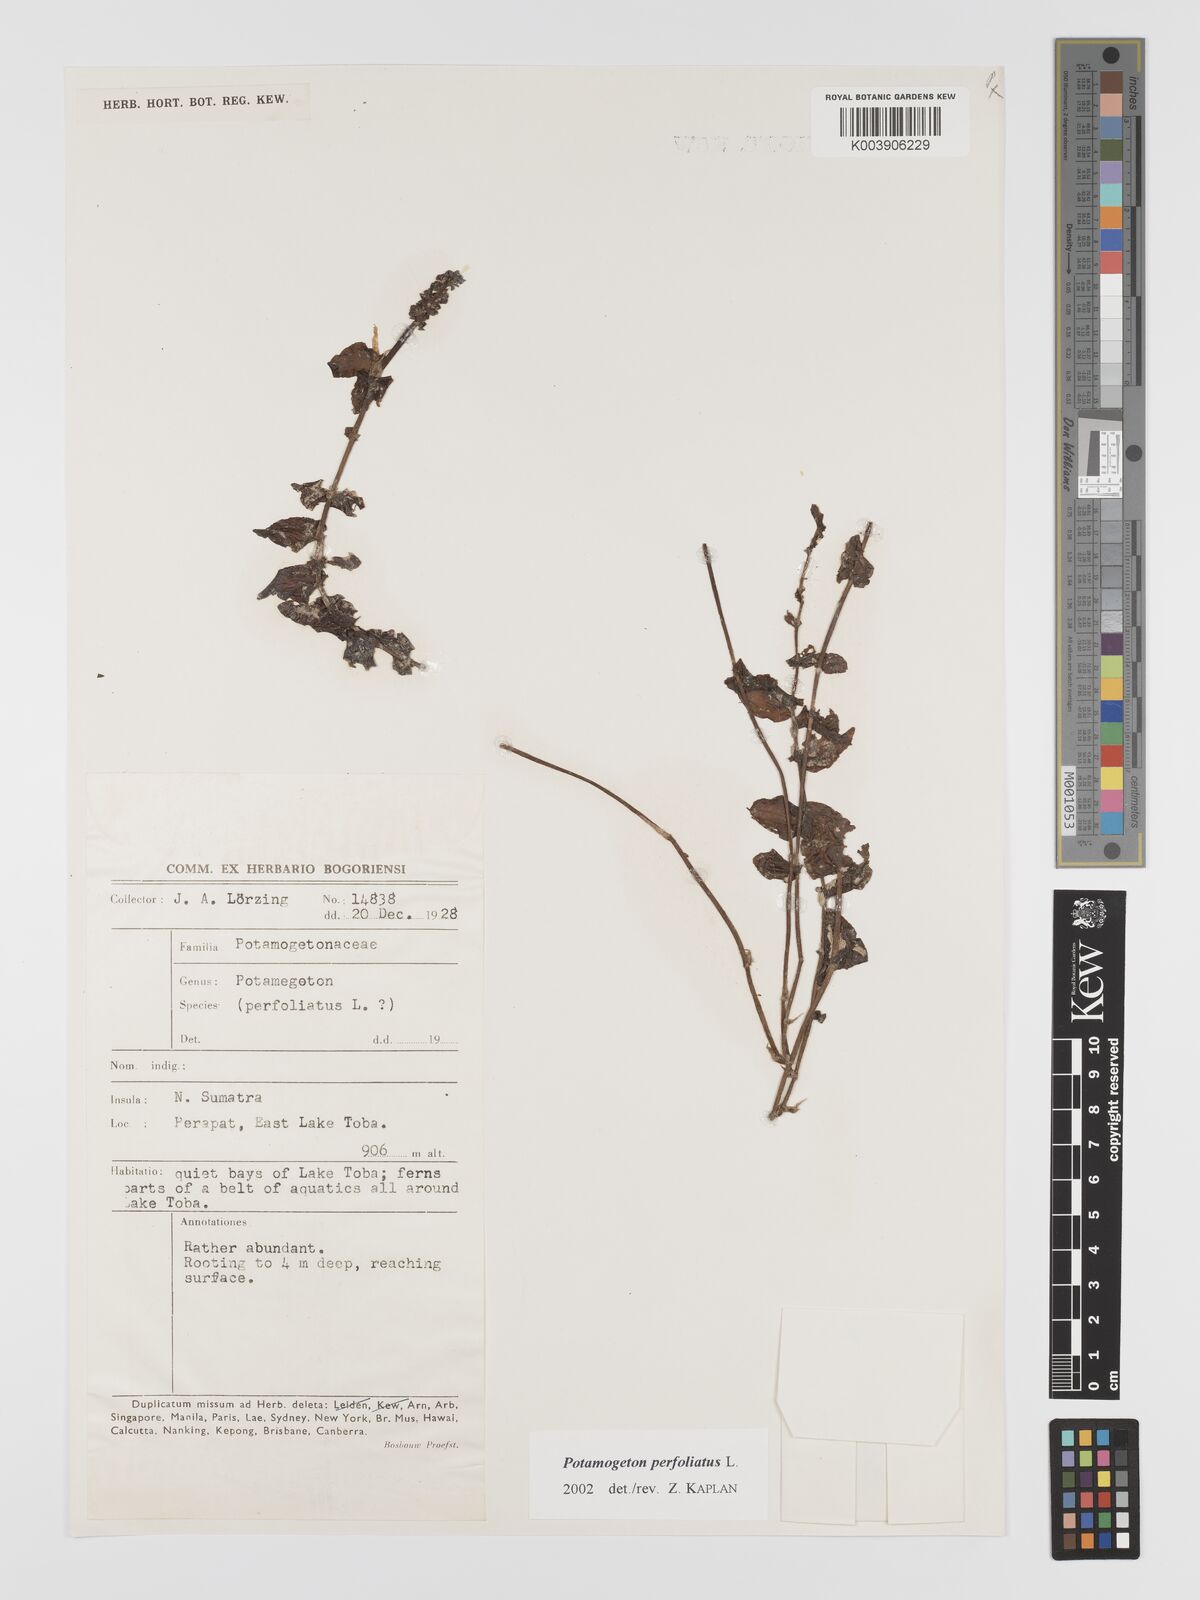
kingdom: Plantae
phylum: Tracheophyta
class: Liliopsida
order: Alismatales
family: Potamogetonaceae
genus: Potamogeton
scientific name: Potamogeton perfoliatus
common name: Perfoliate pondweed
